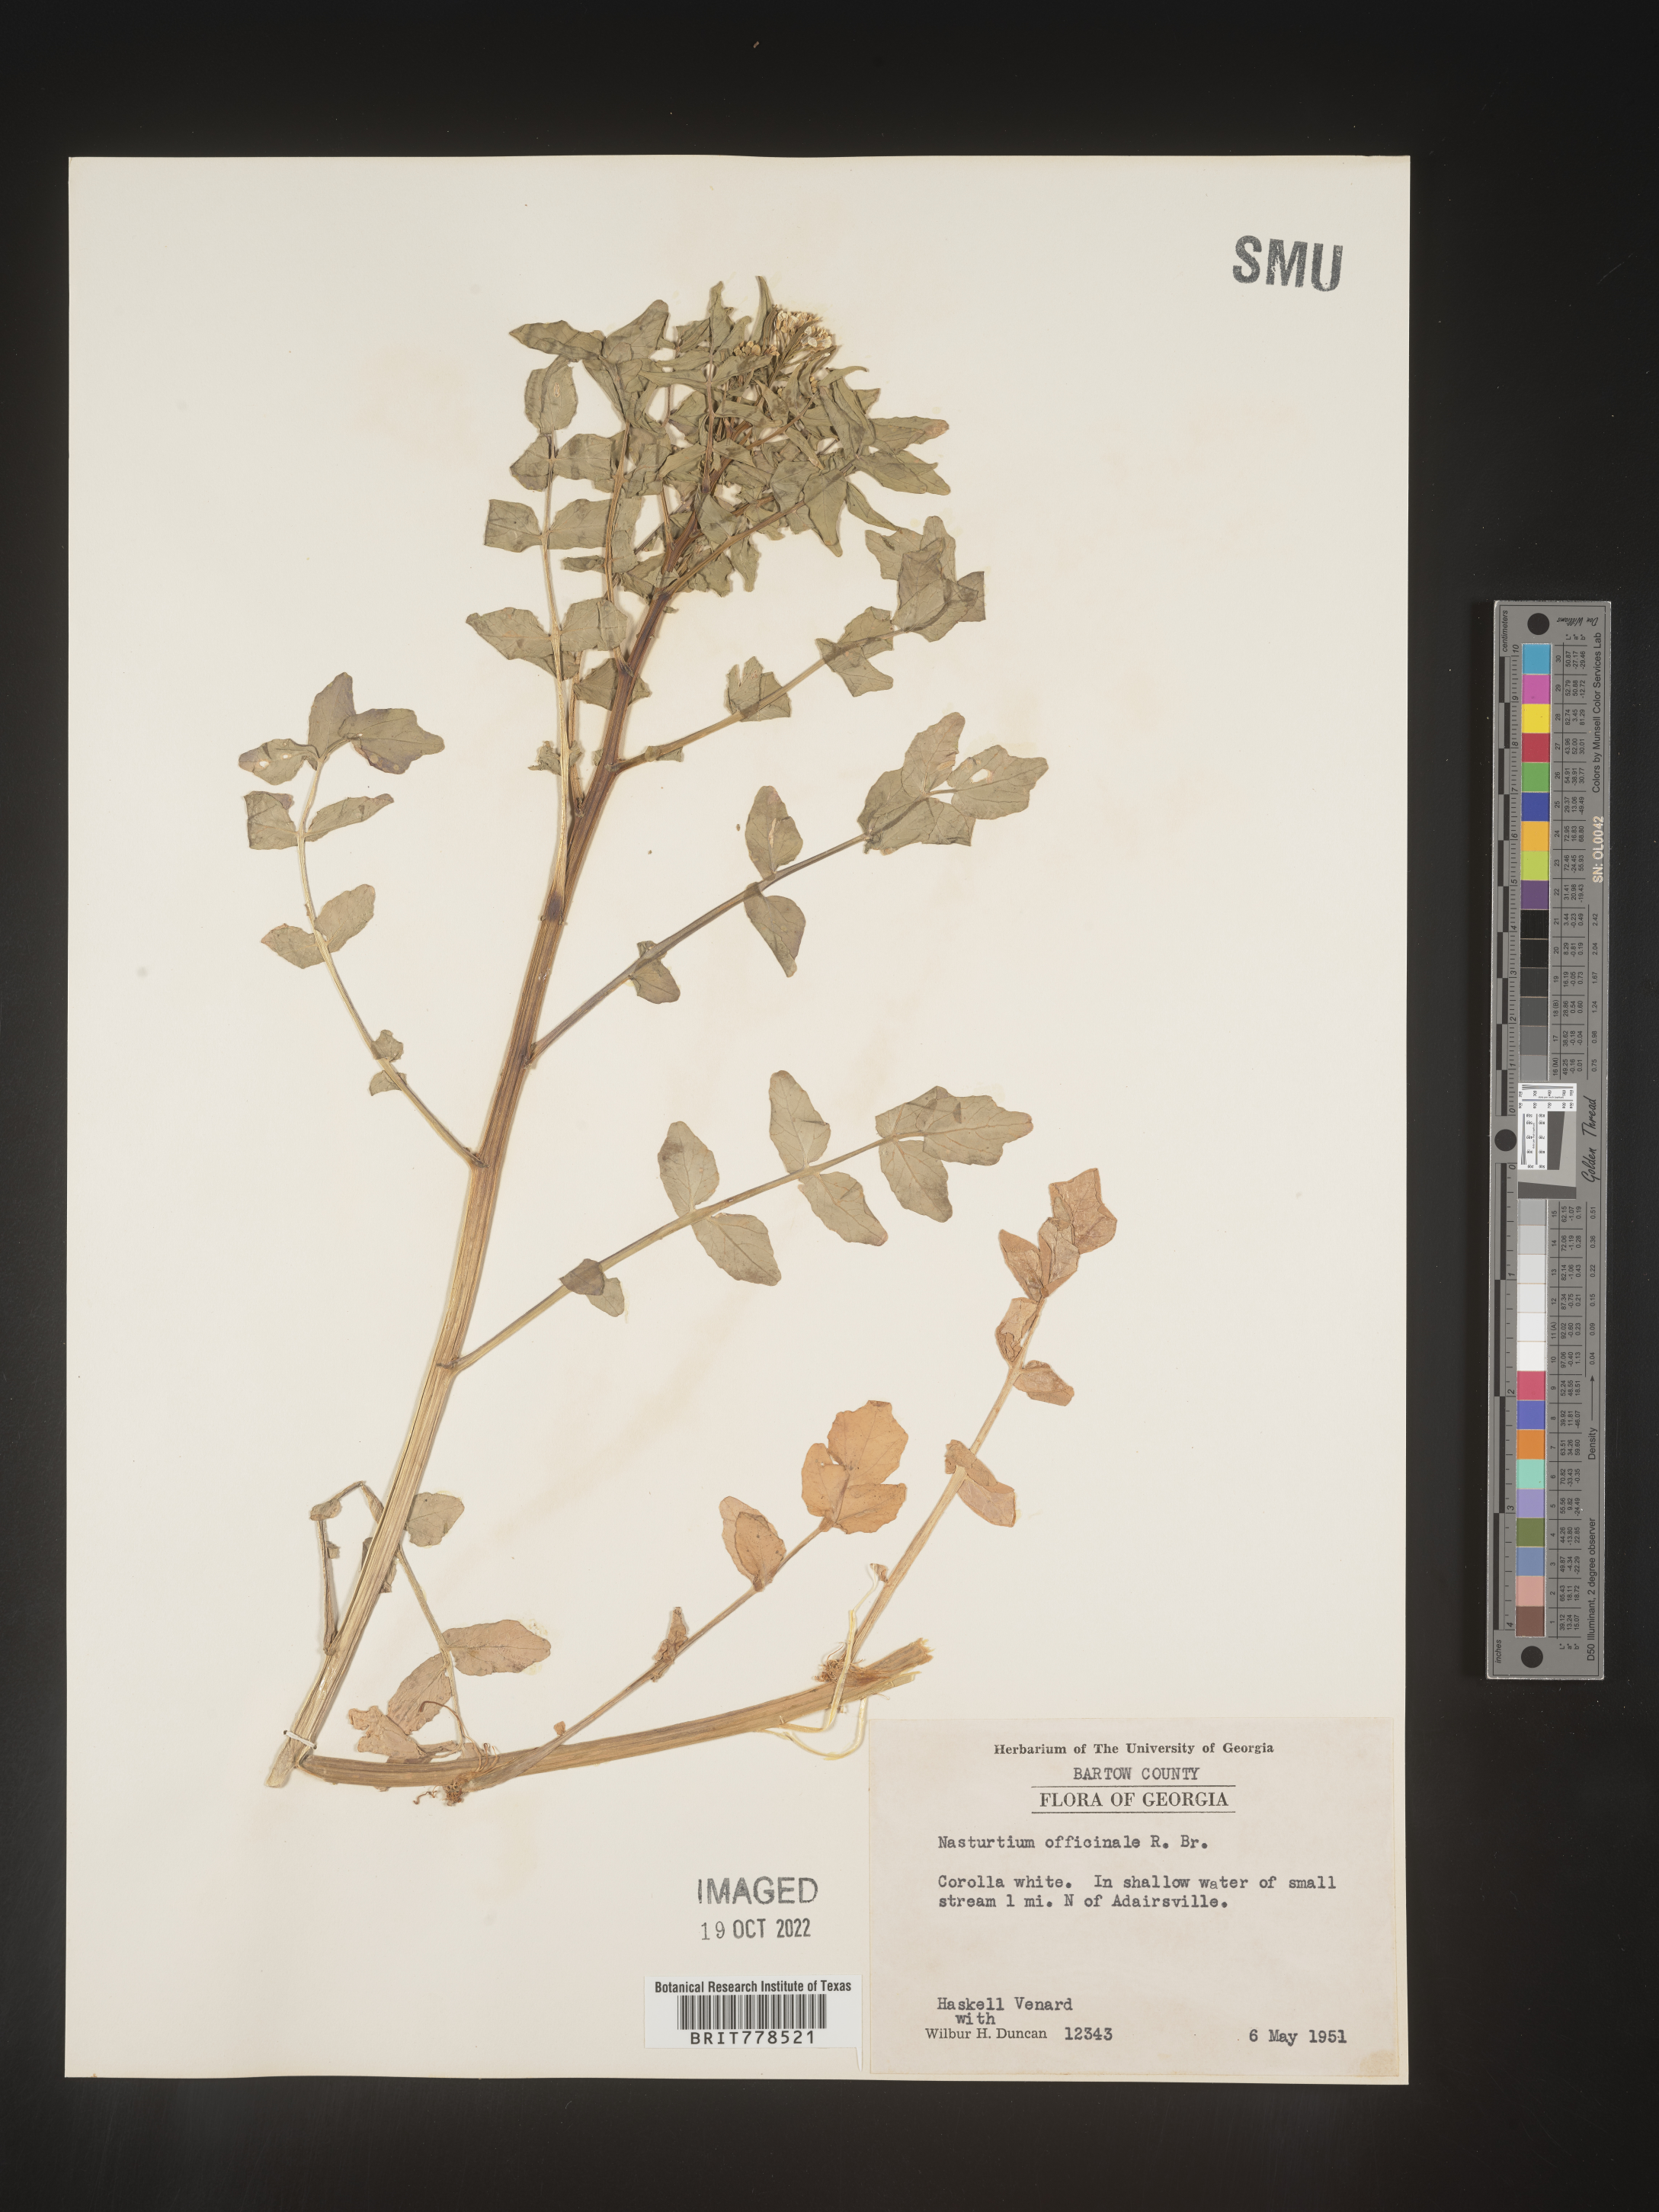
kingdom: Plantae
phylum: Tracheophyta
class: Magnoliopsida
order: Brassicales
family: Brassicaceae
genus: Nasturtium
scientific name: Nasturtium officinale
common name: Watercress
